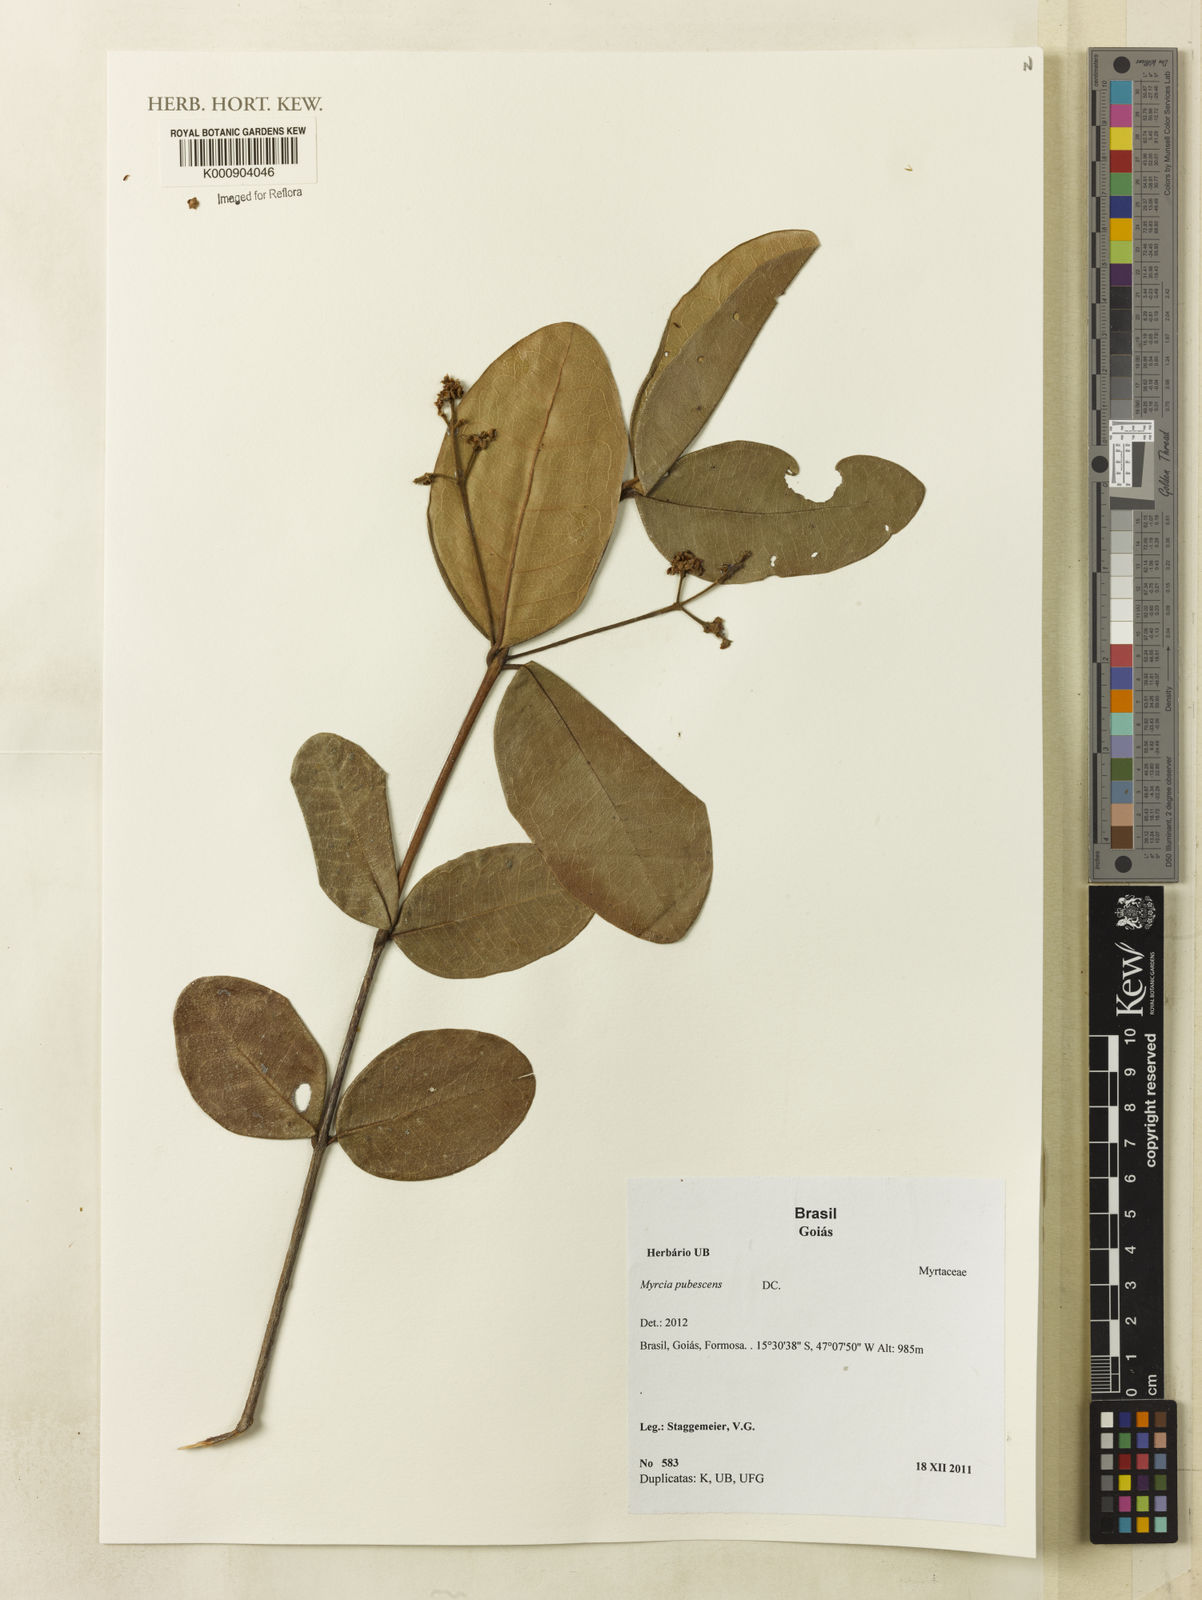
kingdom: Plantae
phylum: Tracheophyta
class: Magnoliopsida
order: Myrtales
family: Myrtaceae
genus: Myrcia
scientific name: Myrcia pubescens
